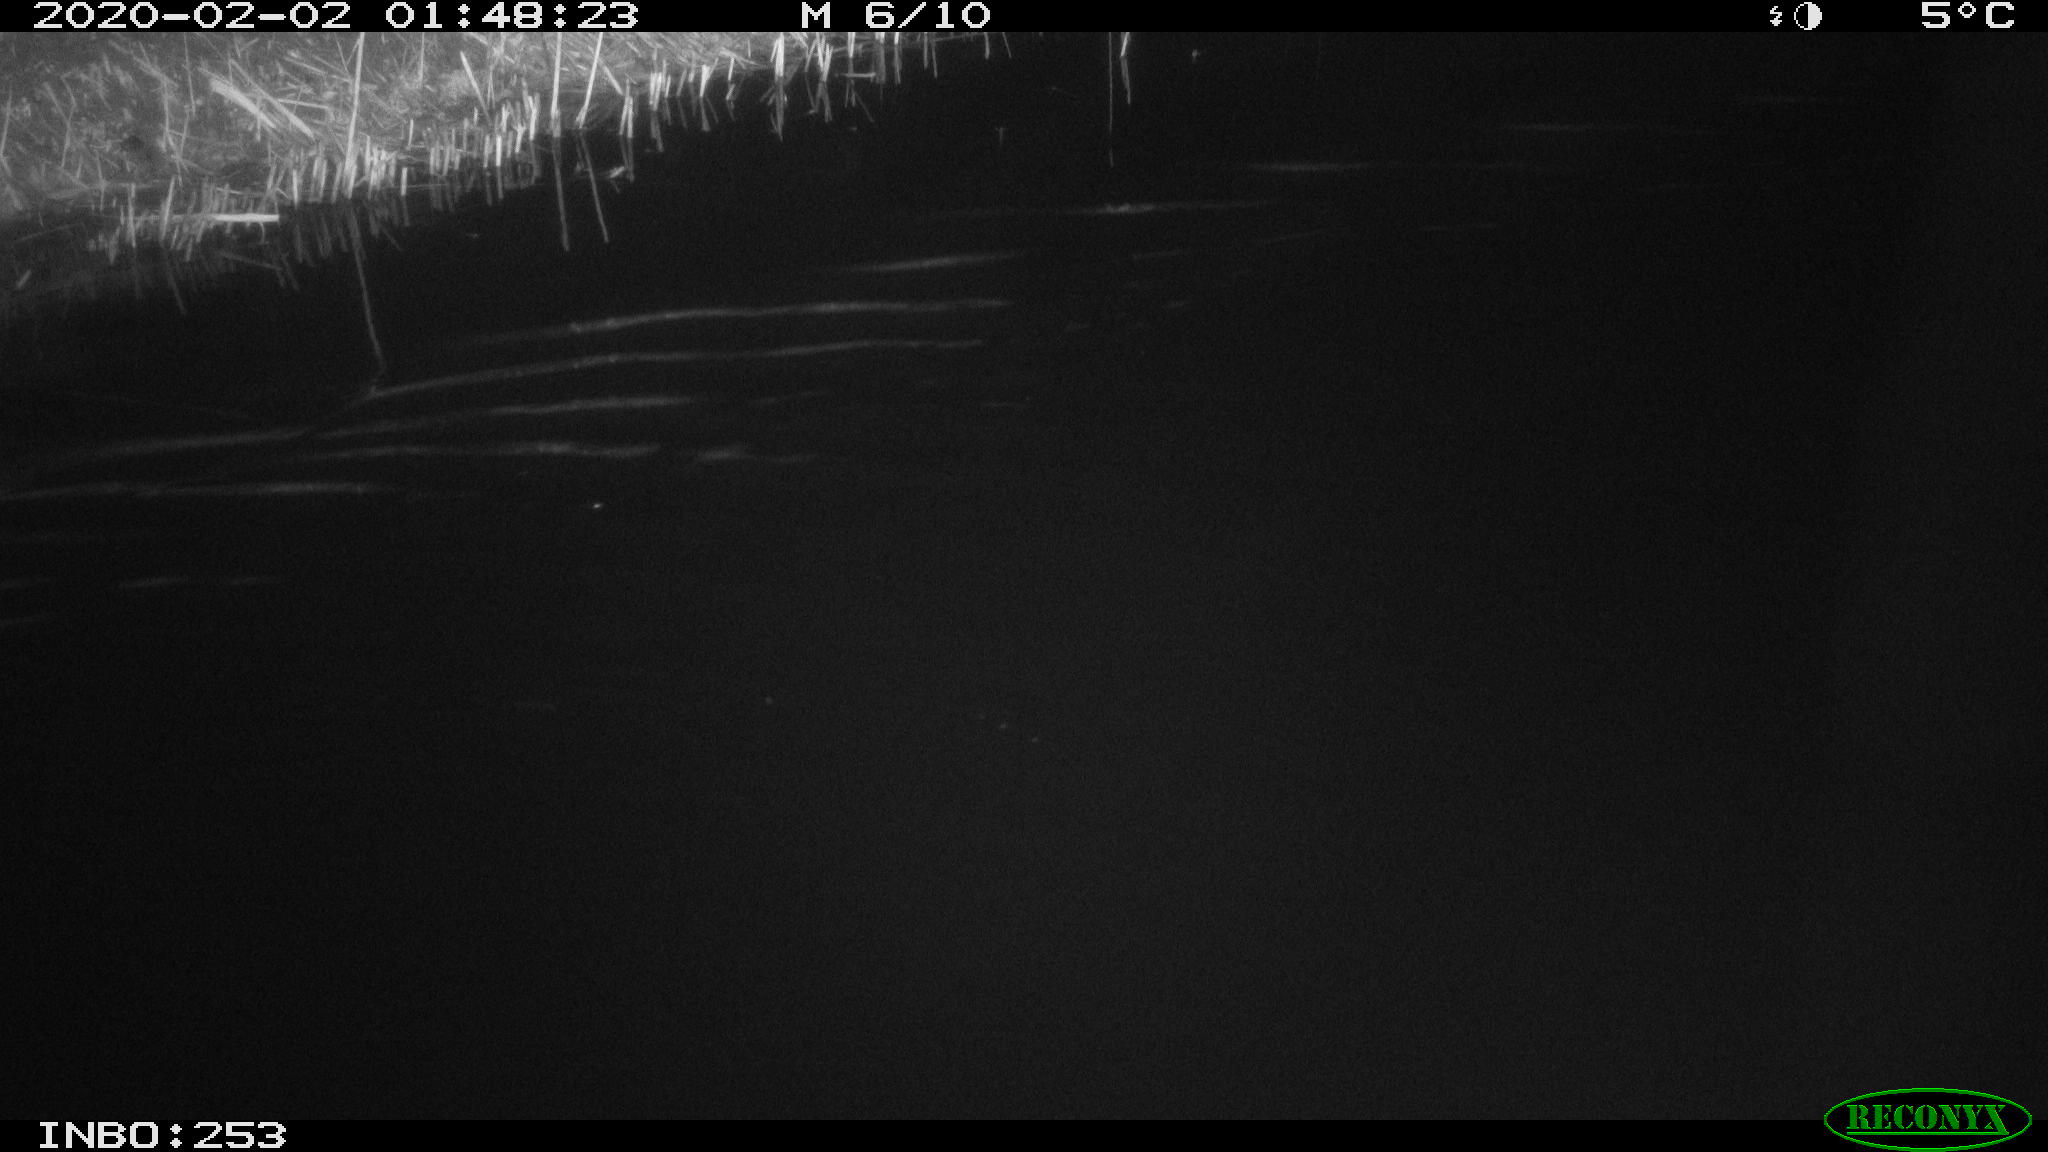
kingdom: Animalia
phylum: Chordata
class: Mammalia
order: Rodentia
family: Cricetidae
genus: Ondatra
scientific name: Ondatra zibethicus
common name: Muskrat
